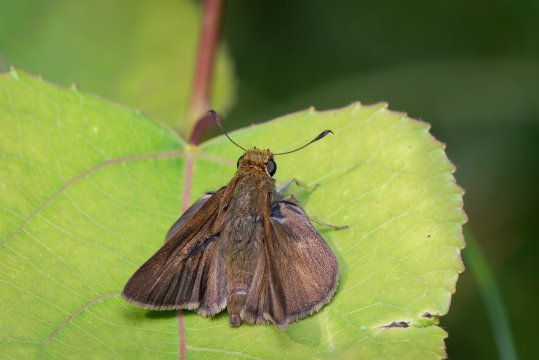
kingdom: Animalia
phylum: Arthropoda
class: Insecta
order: Lepidoptera
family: Hesperiidae
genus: Euphyes
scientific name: Euphyes vestris
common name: Dun Skipper
